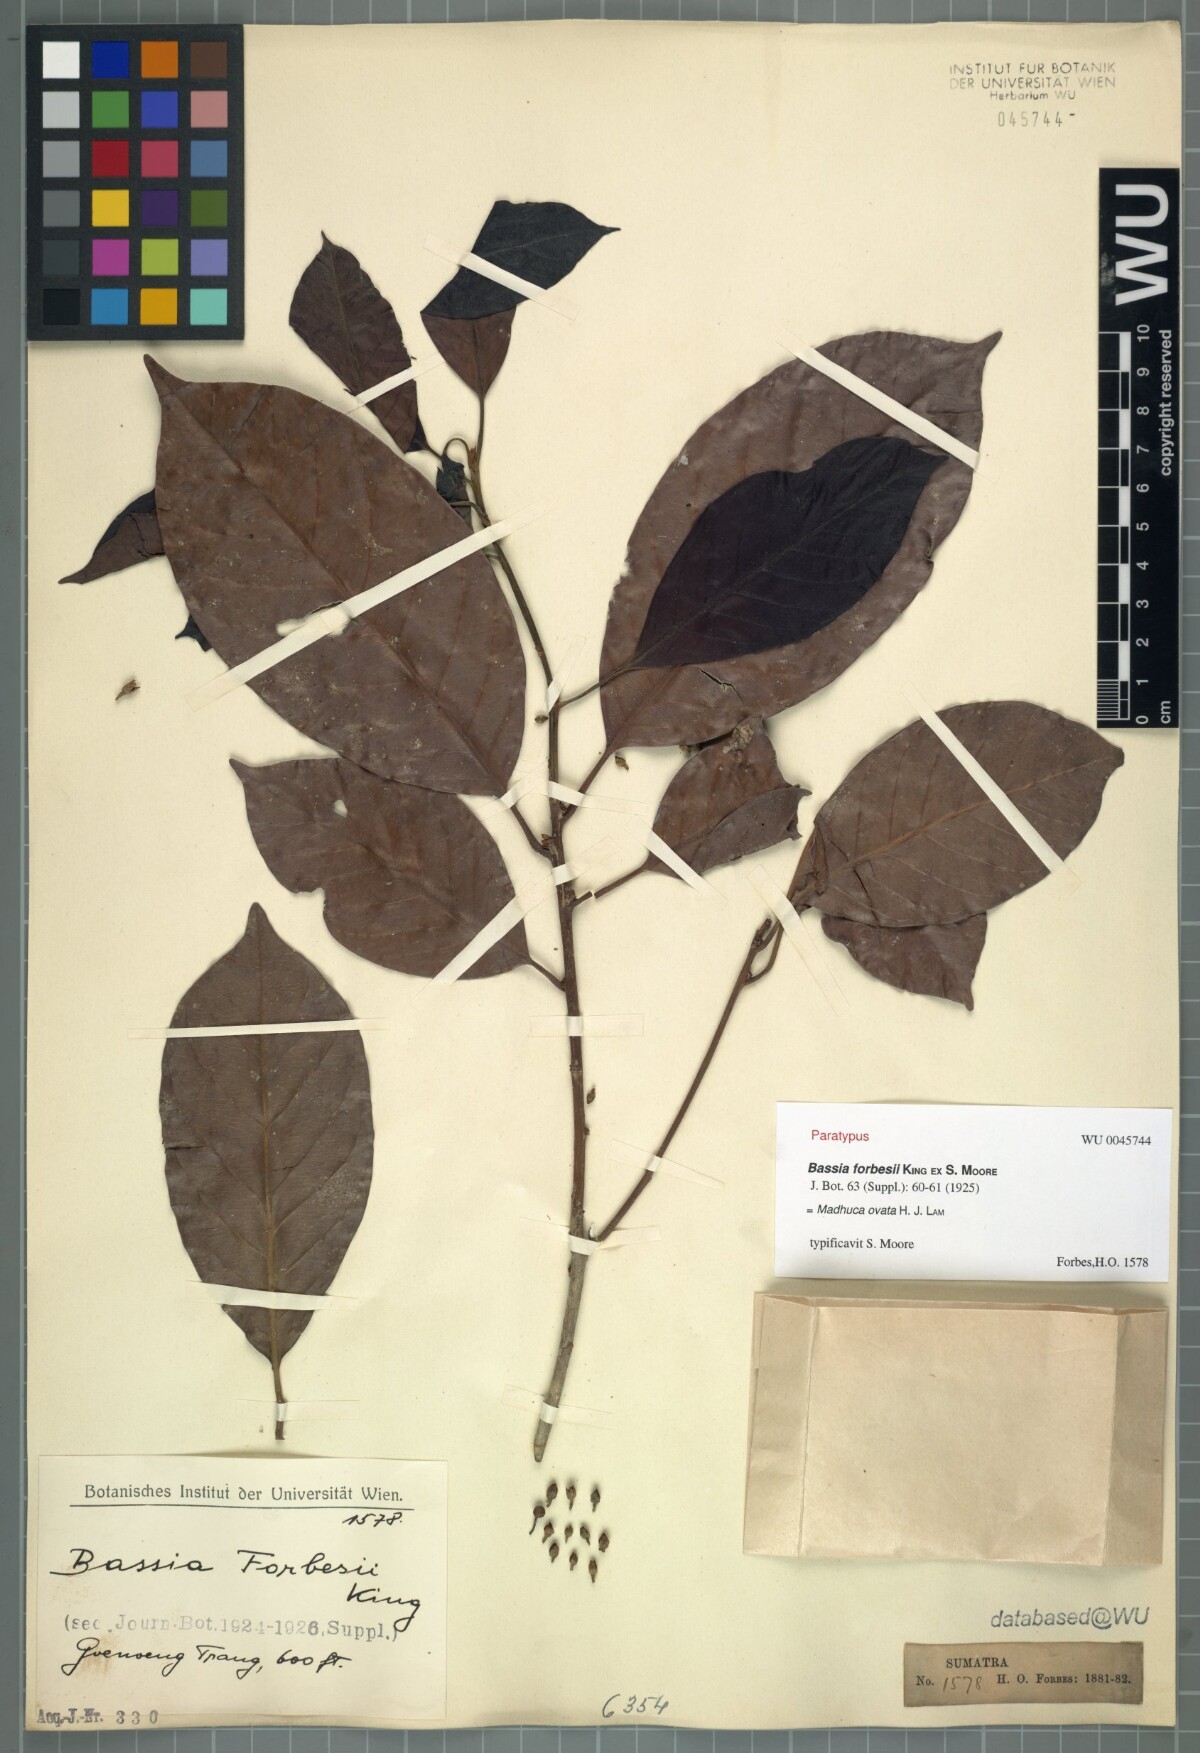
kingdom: Plantae
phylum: Tracheophyta
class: Magnoliopsida
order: Ericales
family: Sapotaceae
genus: Madhuca
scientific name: Madhuca ovata
